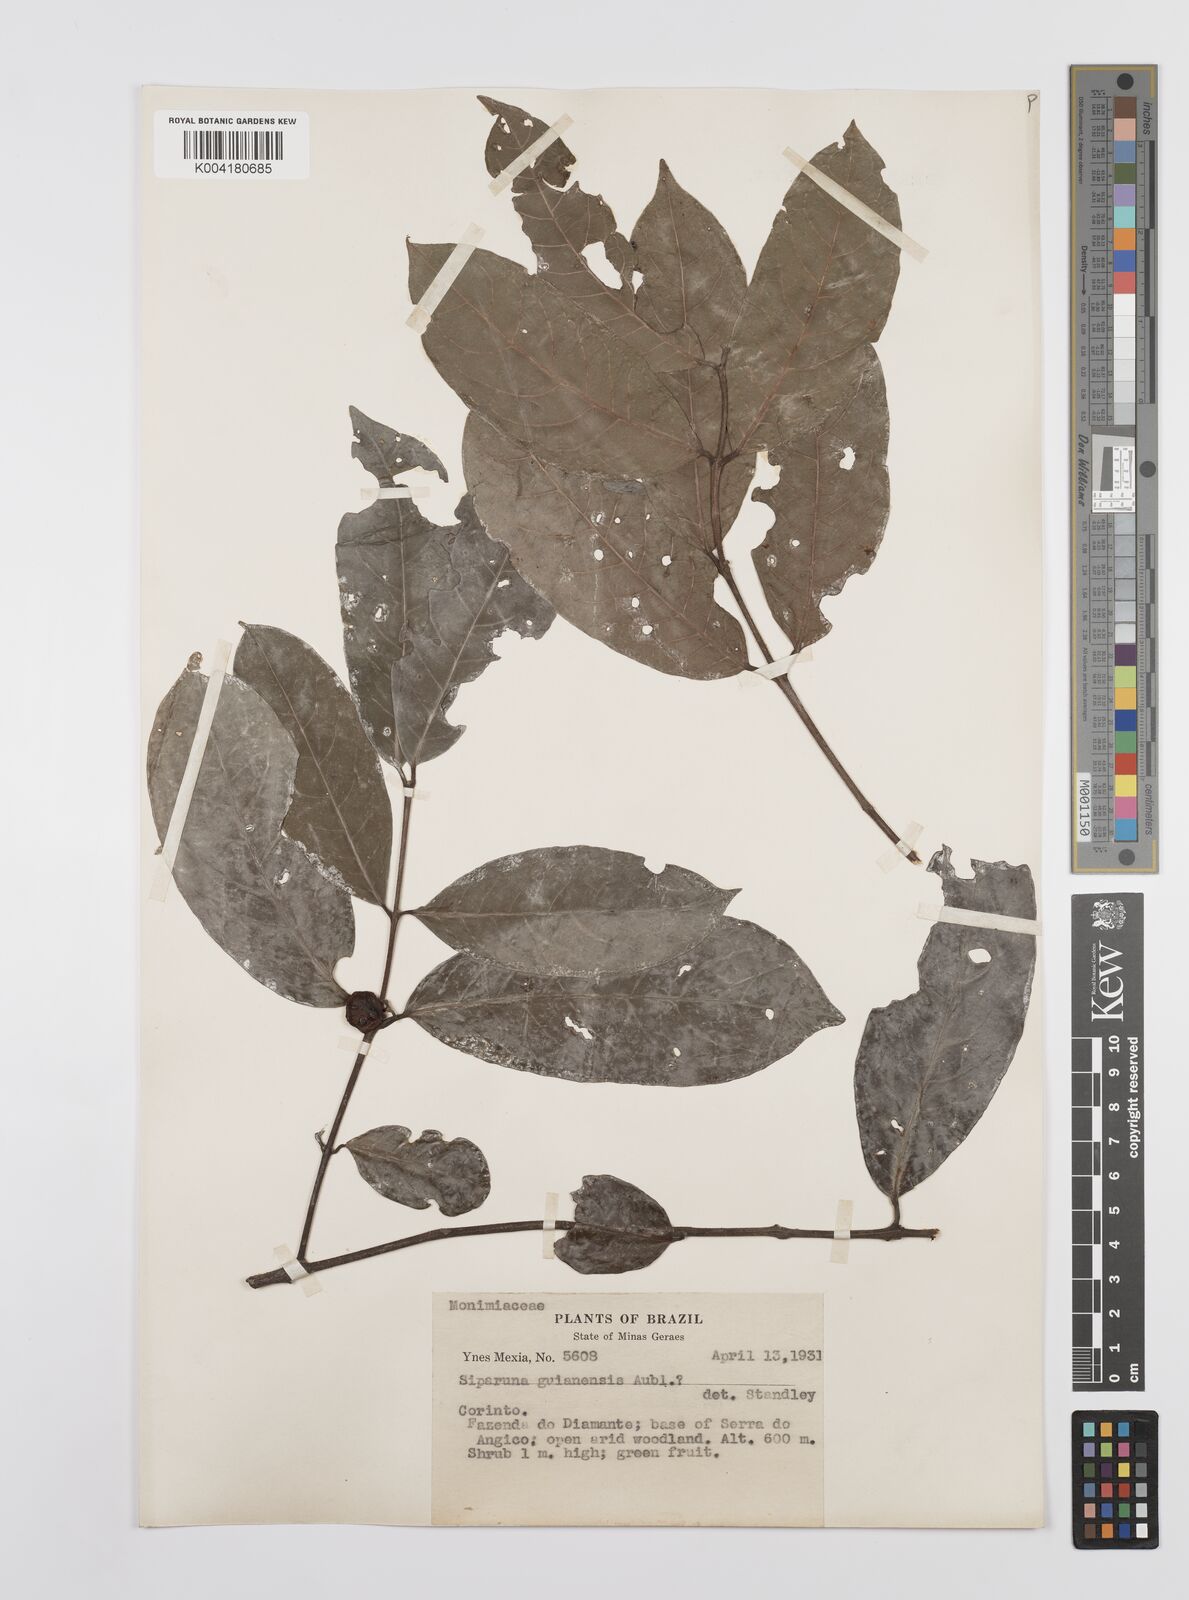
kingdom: Plantae
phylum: Tracheophyta
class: Magnoliopsida
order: Laurales
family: Siparunaceae
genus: Siparuna
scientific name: Siparuna guianensis
